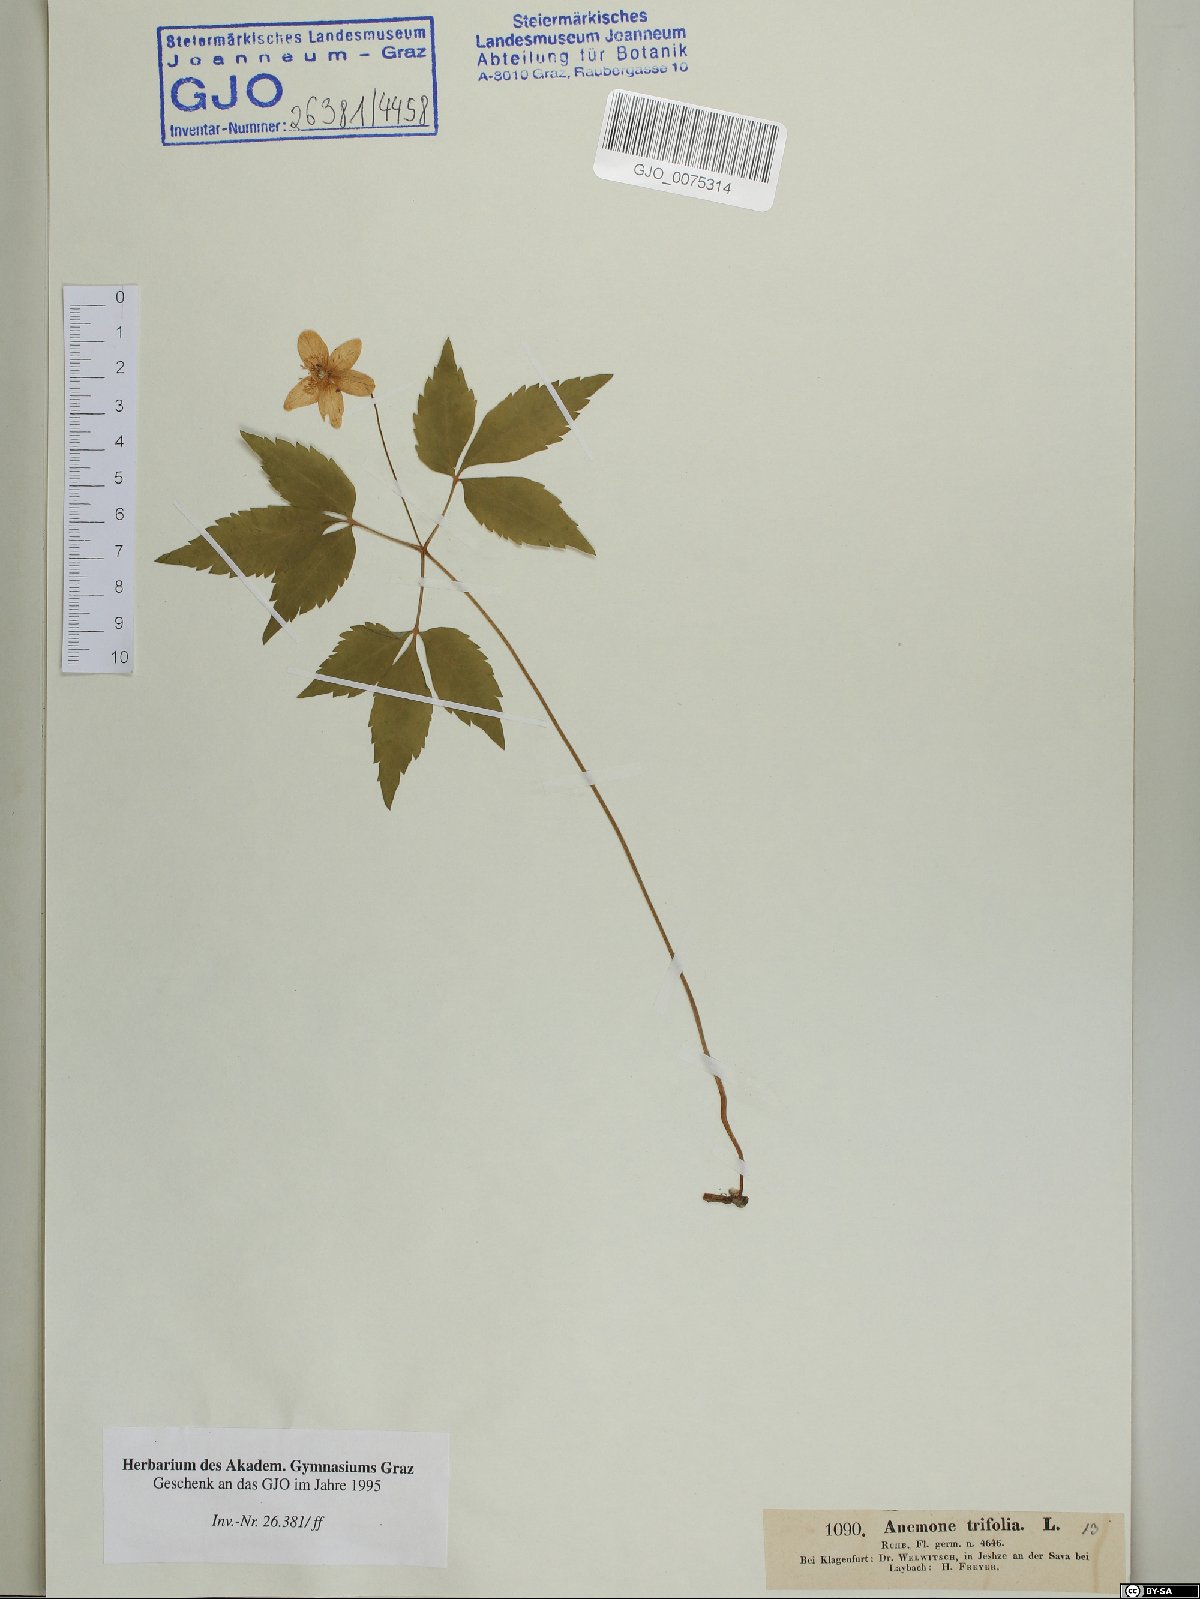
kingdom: Plantae
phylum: Tracheophyta
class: Magnoliopsida
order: Ranunculales
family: Ranunculaceae
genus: Anemone
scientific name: Anemone trifolia
